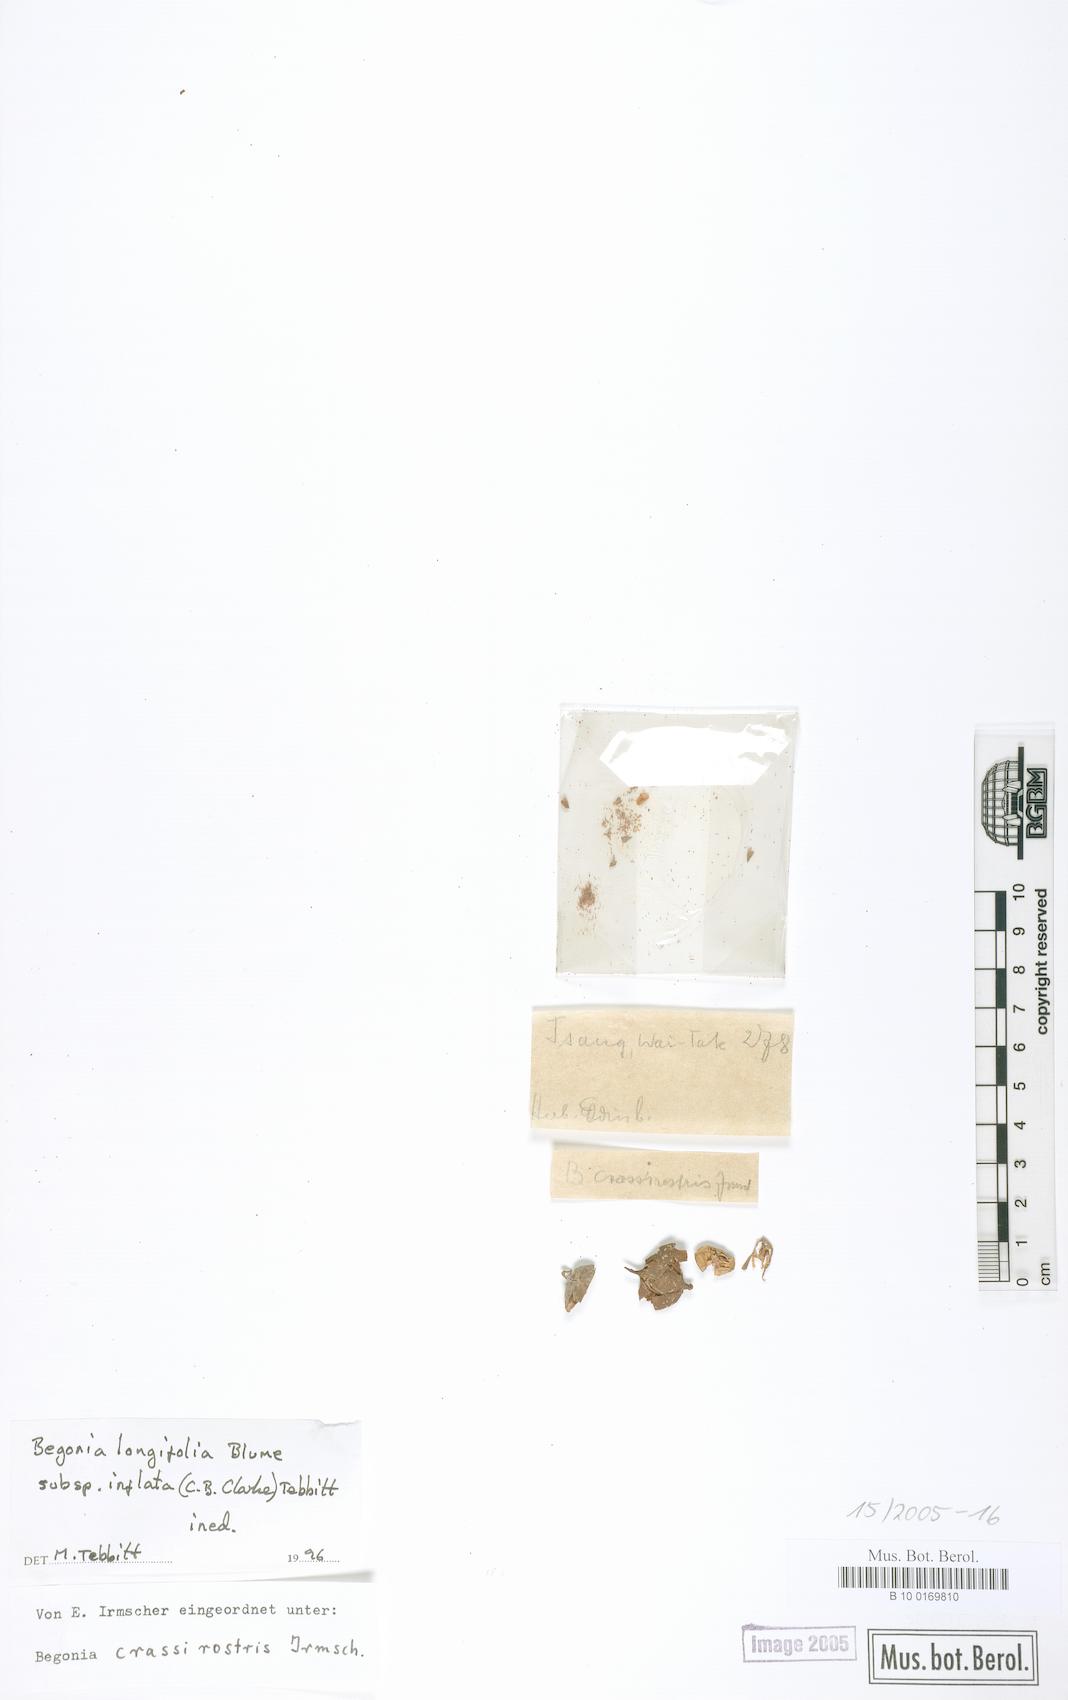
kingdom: Plantae
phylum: Tracheophyta
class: Magnoliopsida
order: Cucurbitales
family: Begoniaceae
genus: Begonia
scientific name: Begonia longifolia
